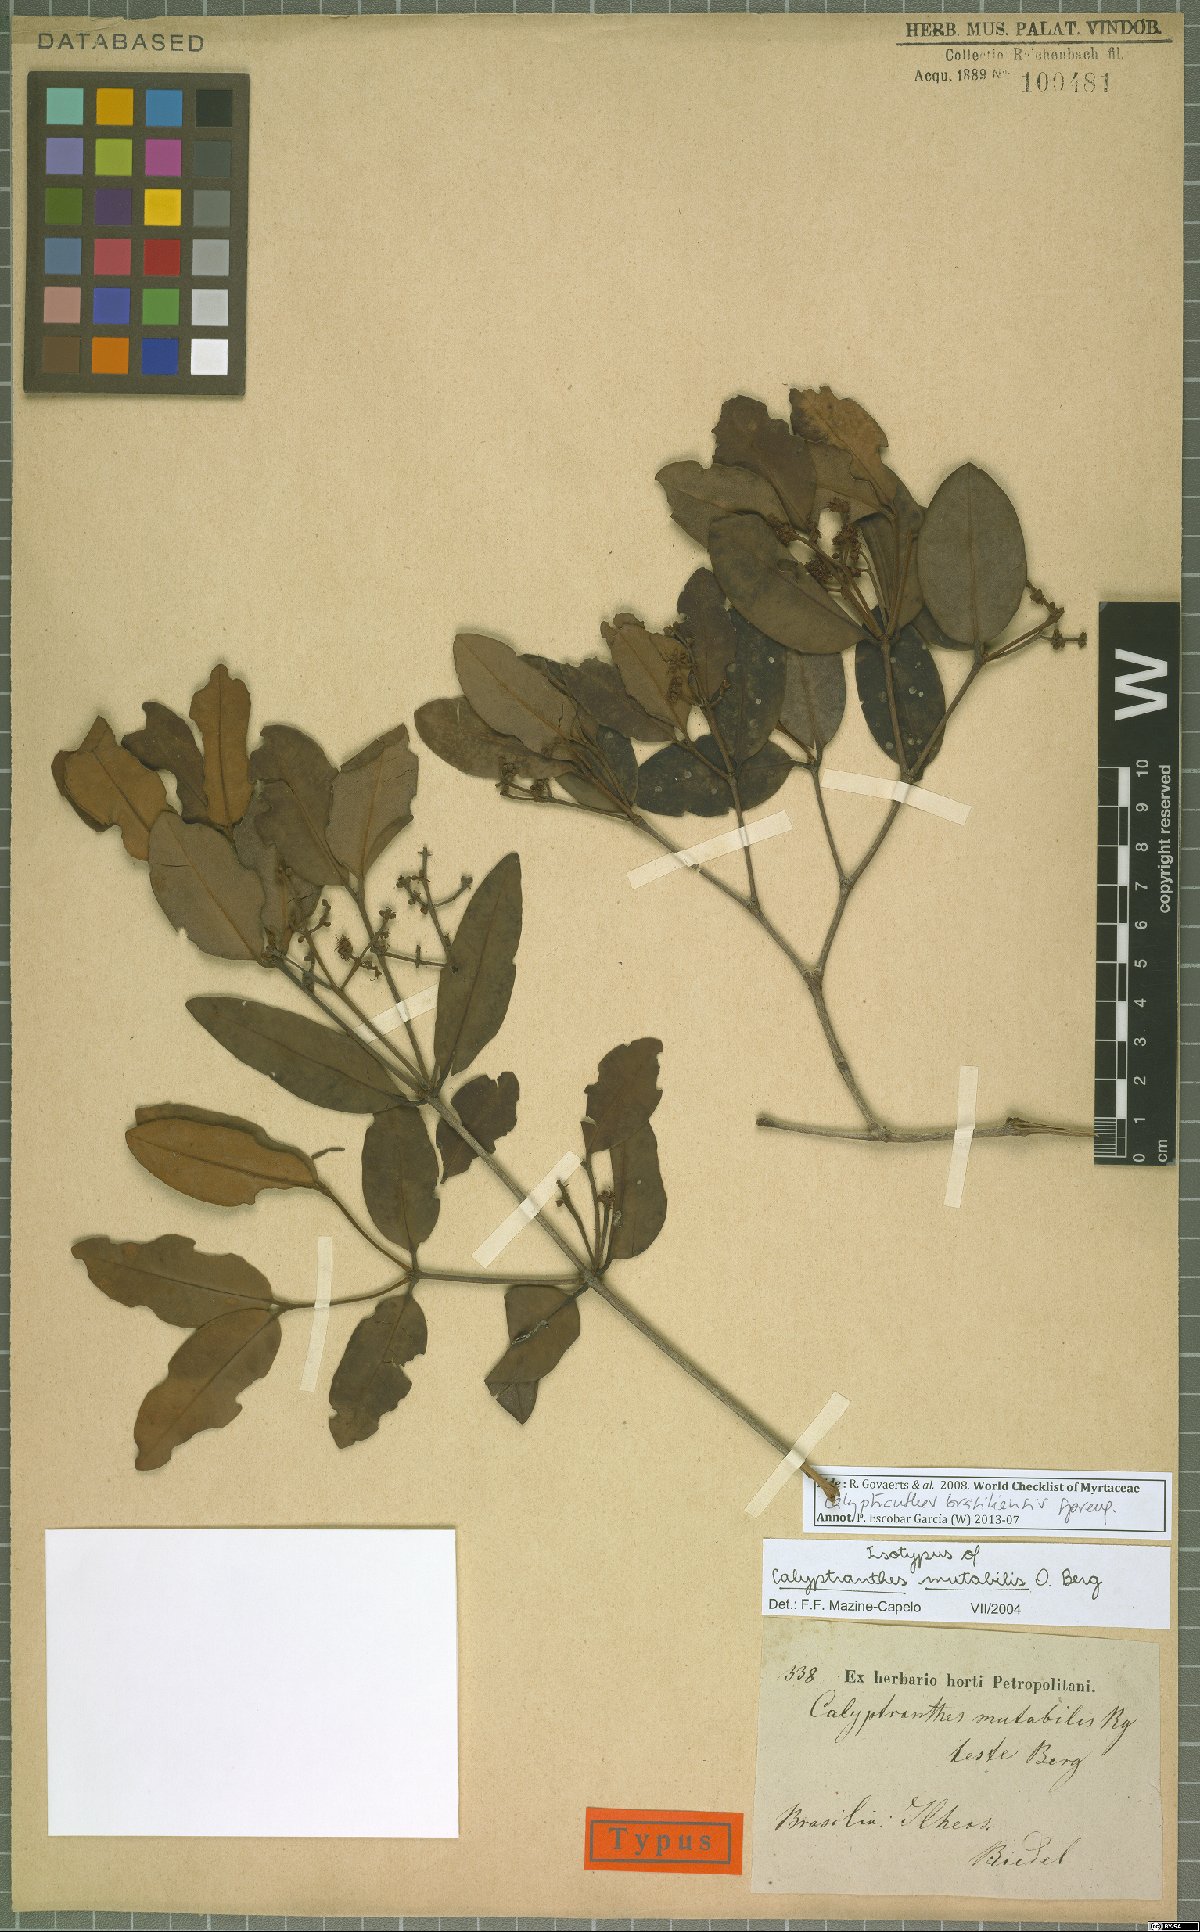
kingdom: Plantae
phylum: Tracheophyta
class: Magnoliopsida
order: Myrtales
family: Myrtaceae
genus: Myrcia
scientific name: Myrcia neobrasiliensis
